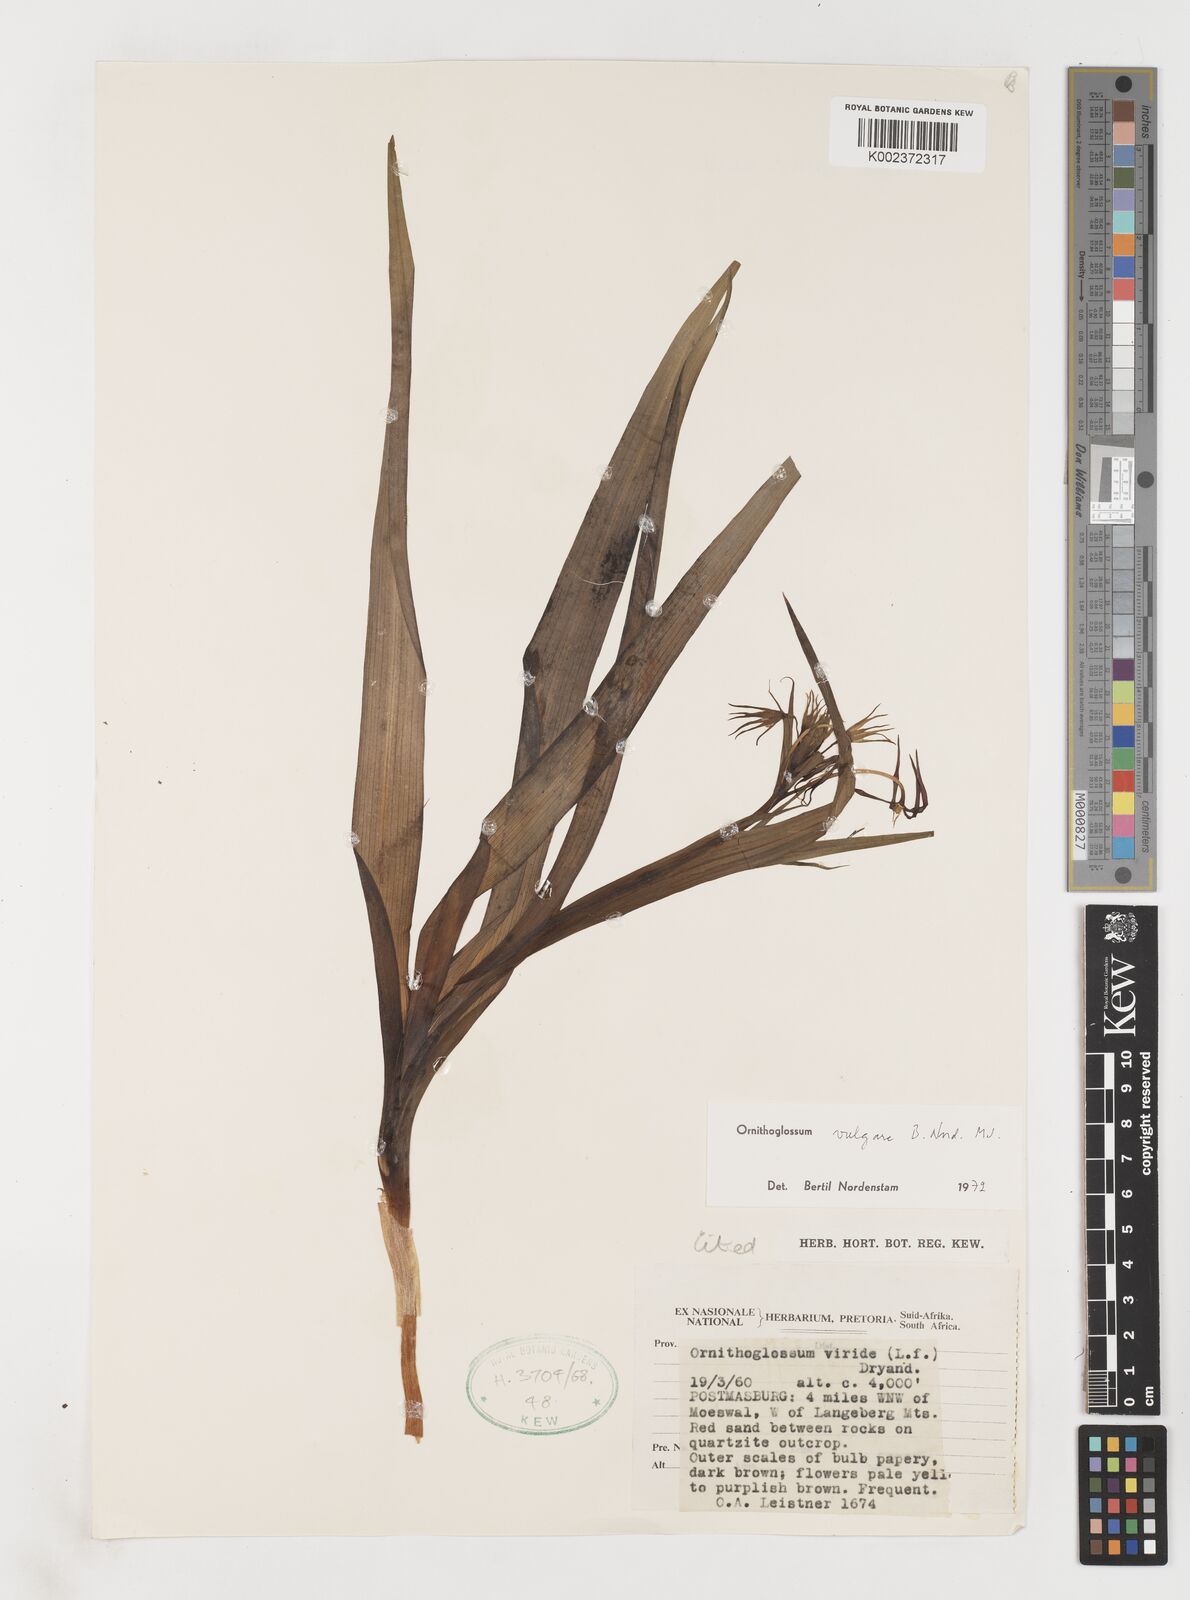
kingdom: Plantae
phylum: Tracheophyta
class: Liliopsida
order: Liliales
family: Colchicaceae
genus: Ornithoglossum
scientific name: Ornithoglossum vulgare
